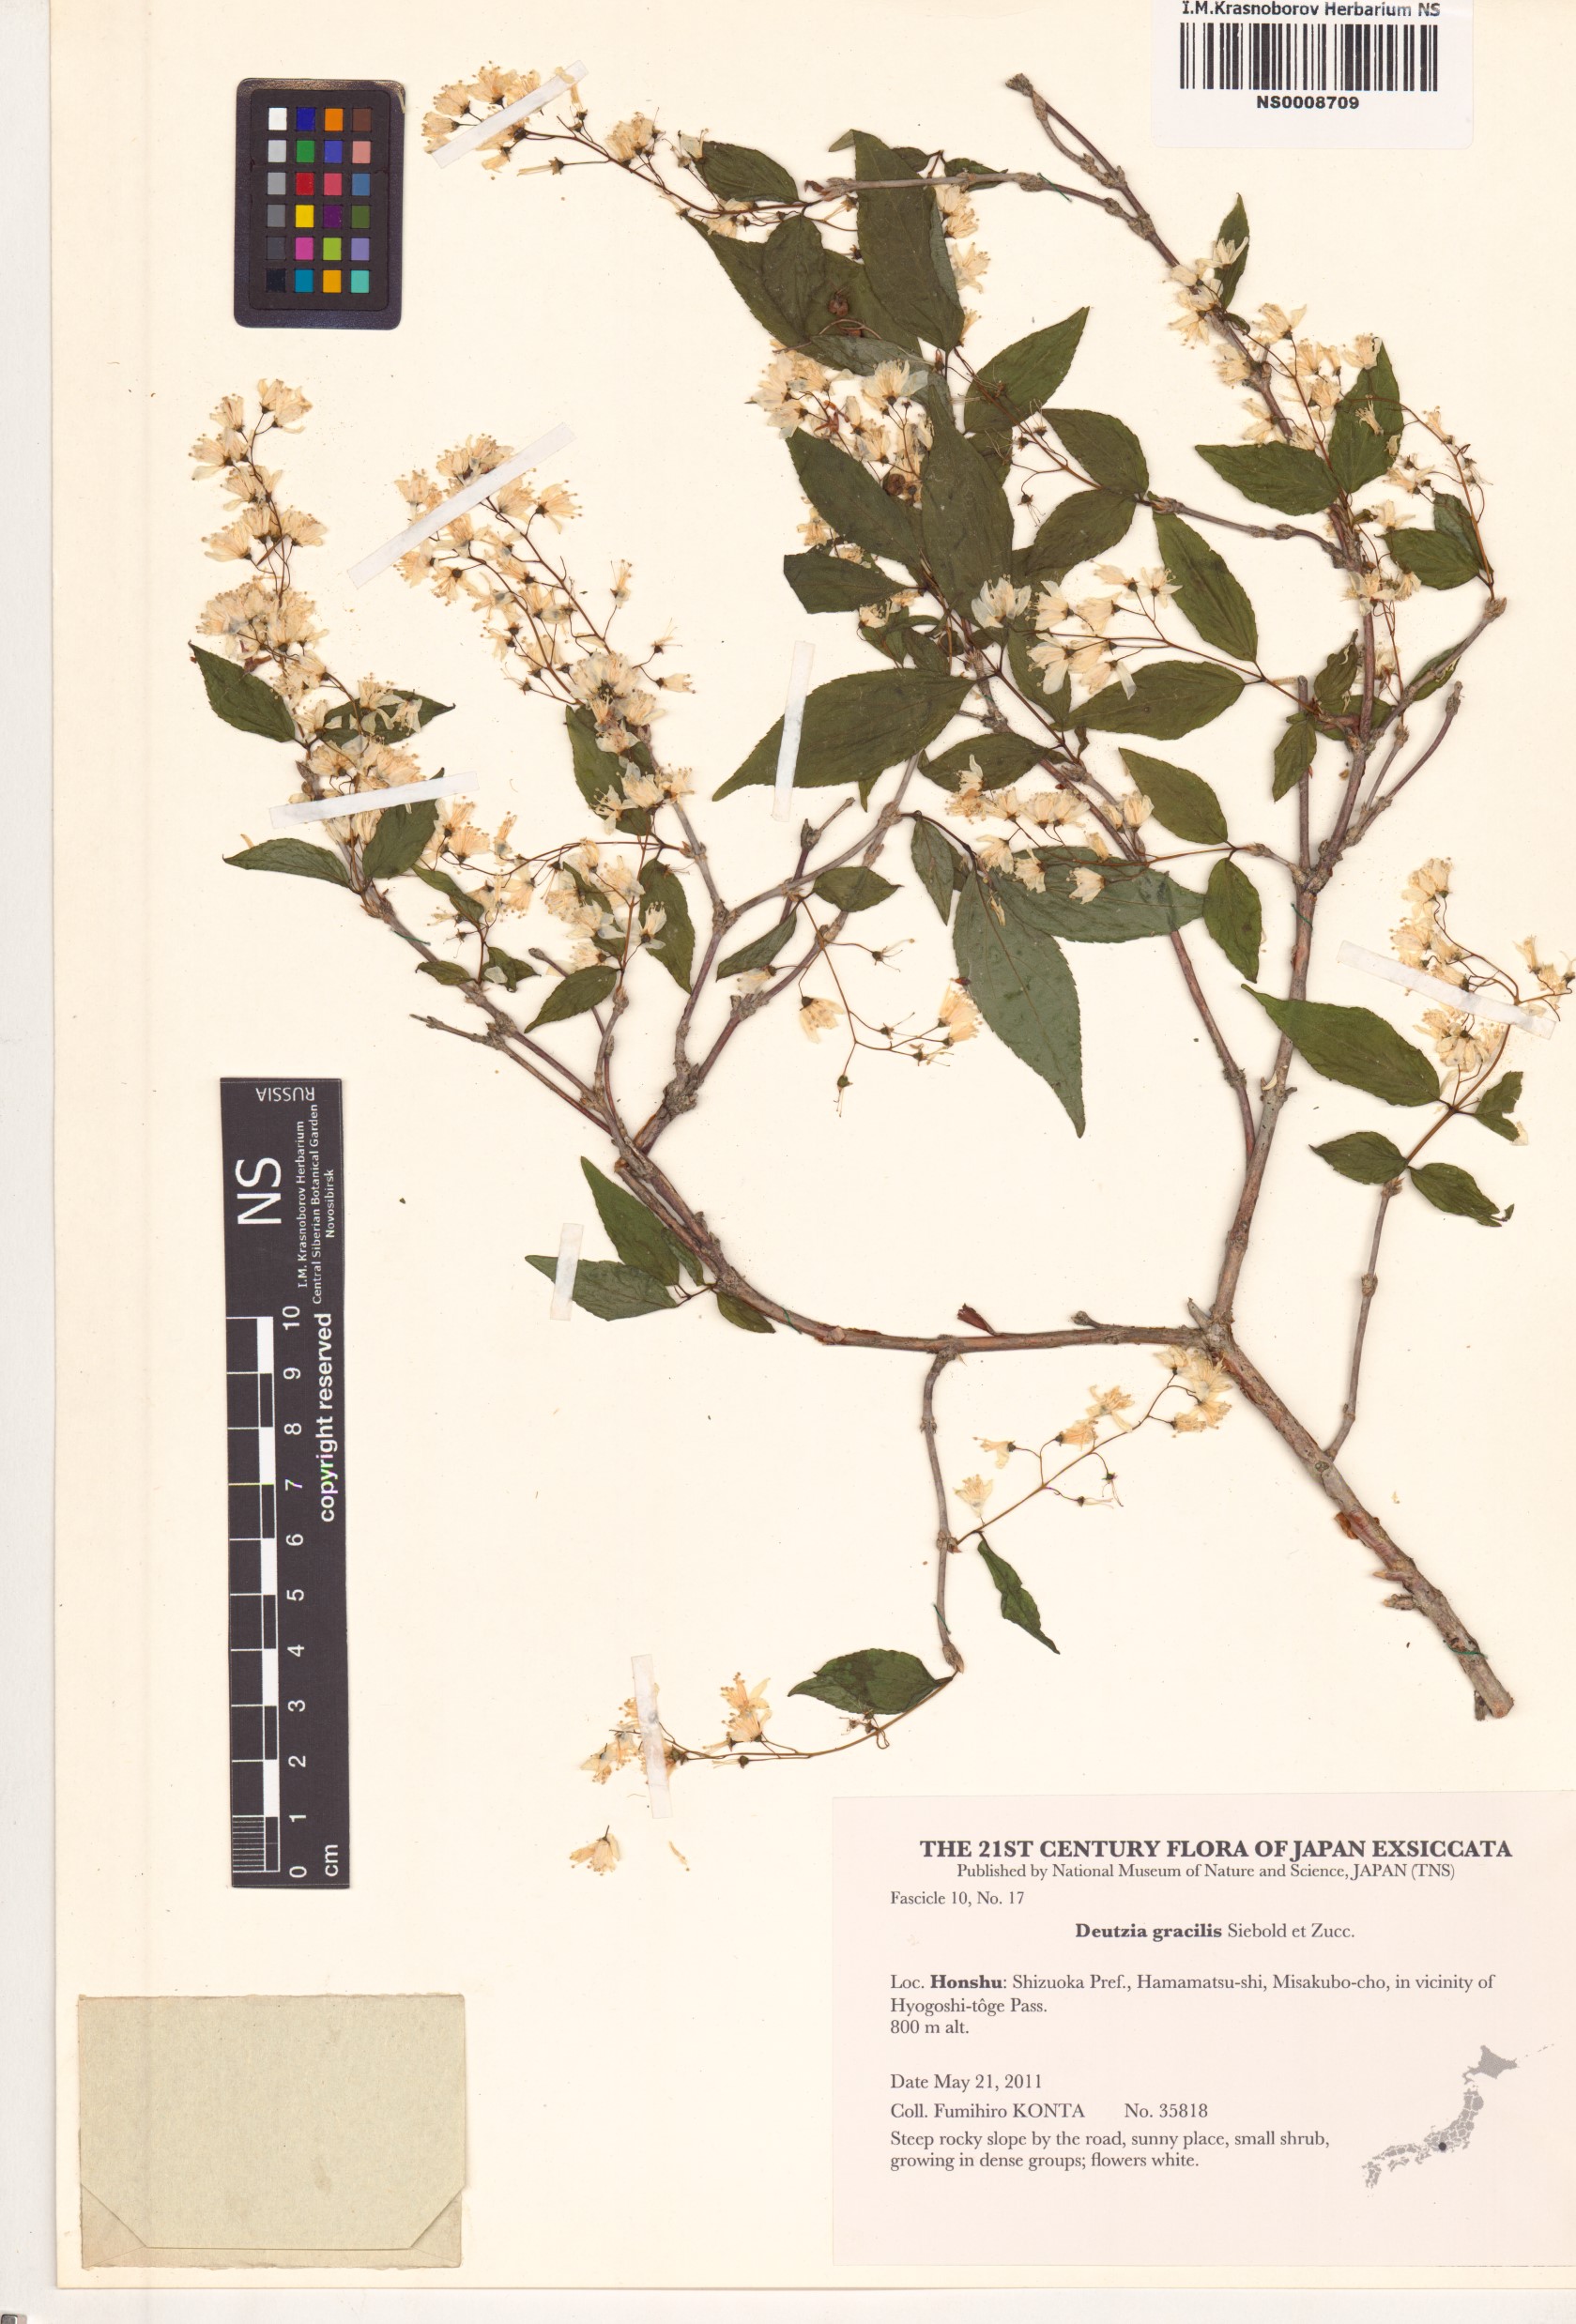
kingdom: Plantae
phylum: Tracheophyta
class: Magnoliopsida
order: Cornales
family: Hydrangeaceae
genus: Deutzia
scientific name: Deutzia gracilis
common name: Slender pride of rochester
